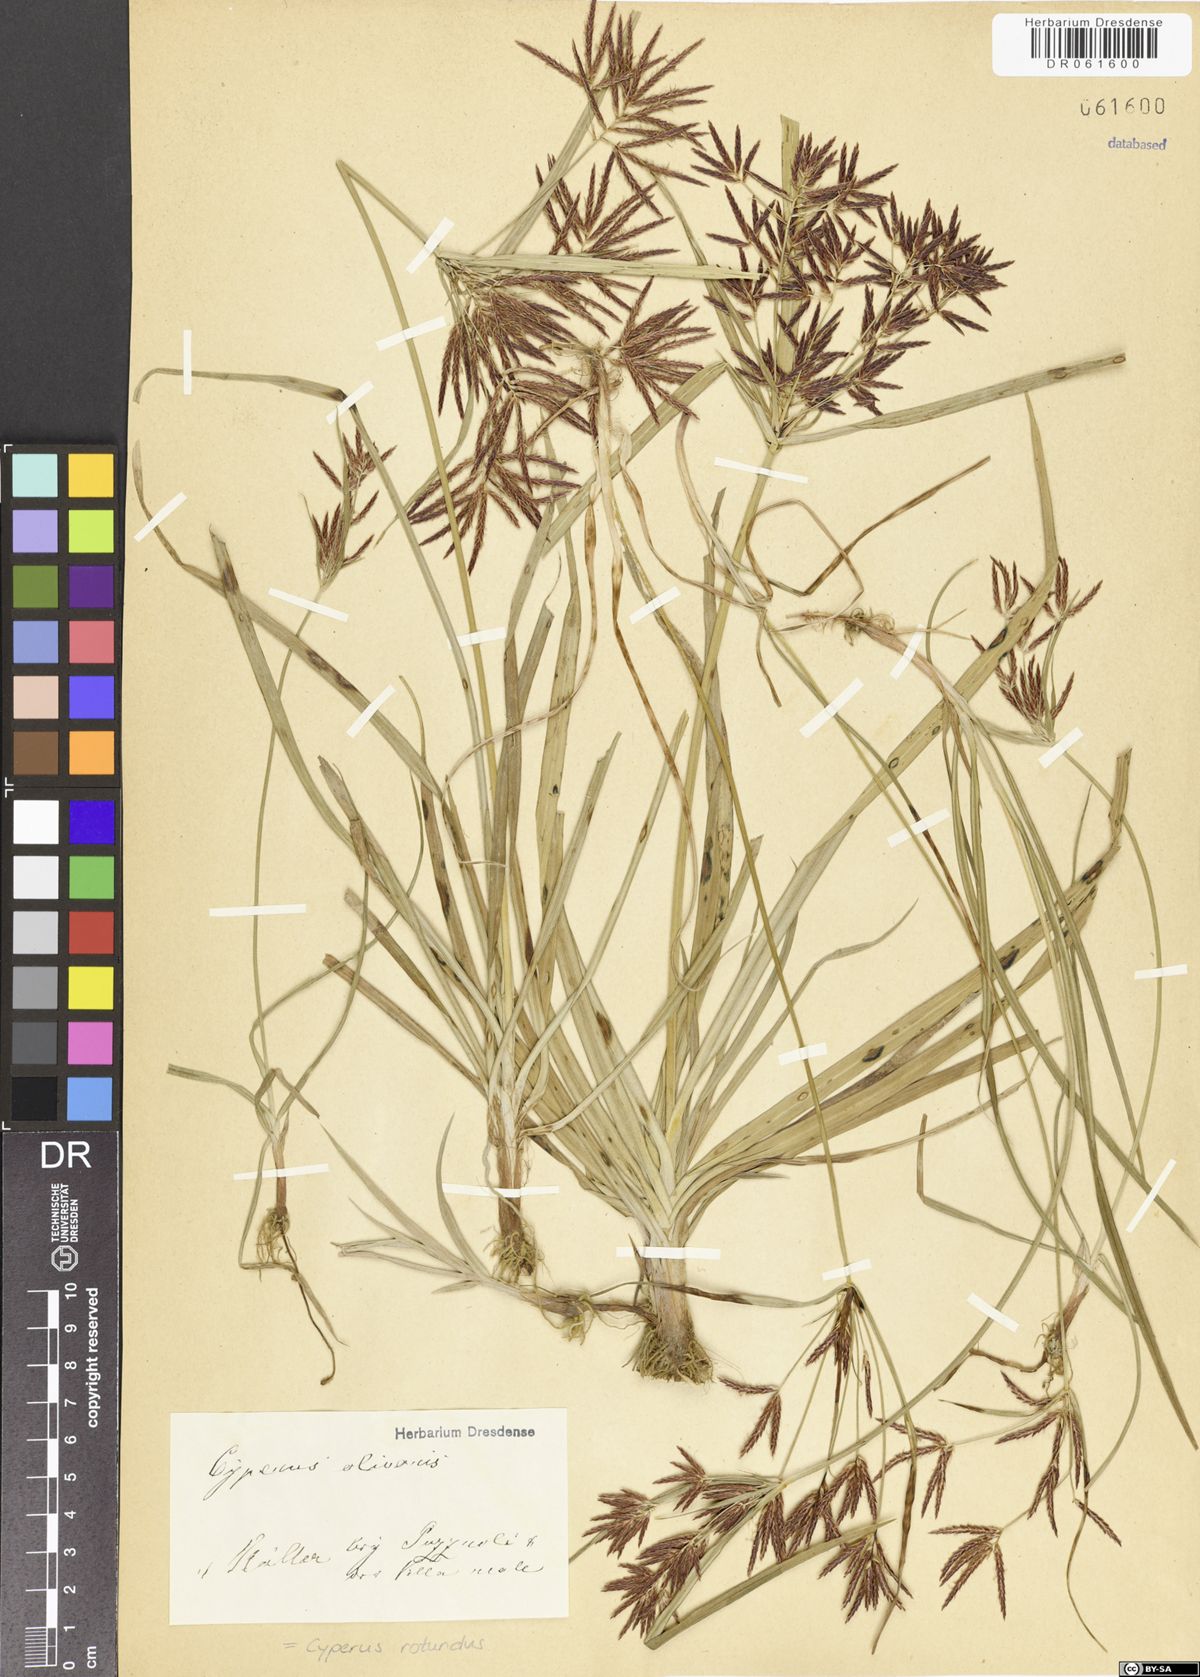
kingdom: Plantae
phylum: Tracheophyta
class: Liliopsida
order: Poales
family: Cyperaceae
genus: Cyperus
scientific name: Cyperus rotundus
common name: Nutgrass
